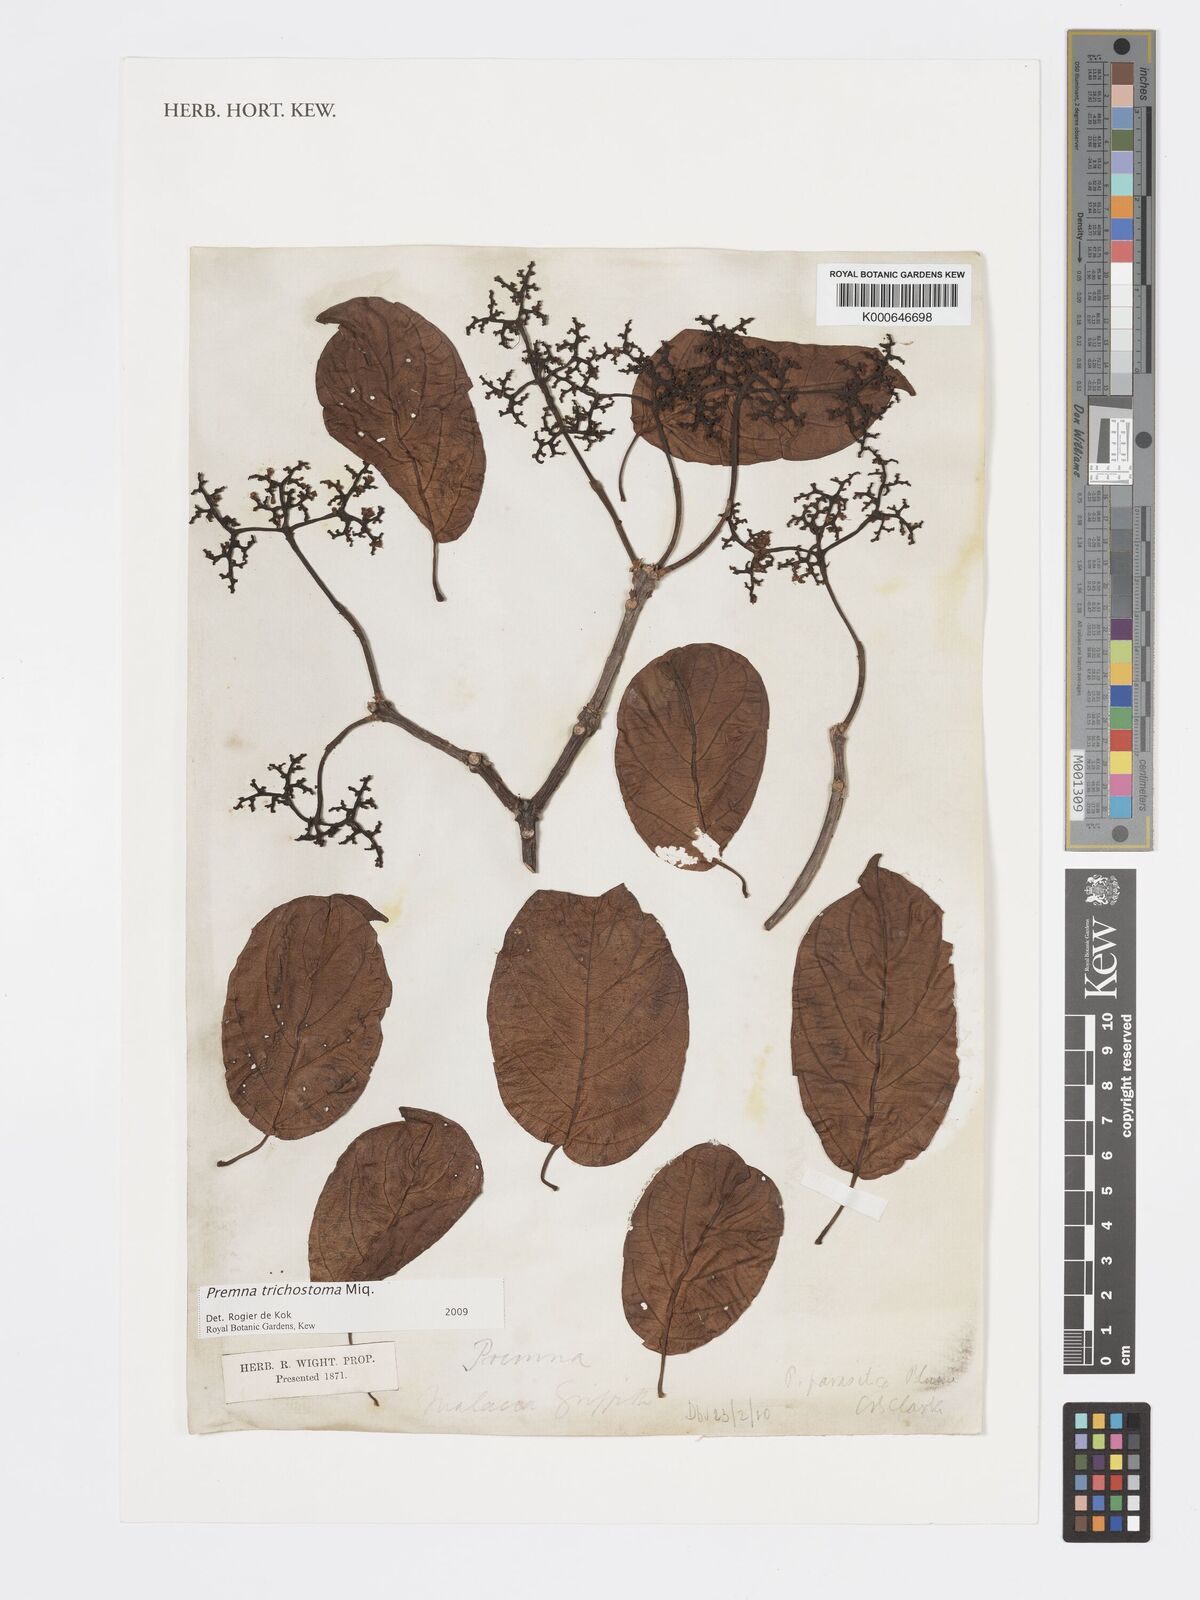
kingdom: Plantae
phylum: Tracheophyta
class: Magnoliopsida
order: Lamiales
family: Lamiaceae
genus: Premna
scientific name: Premna trichostoma
